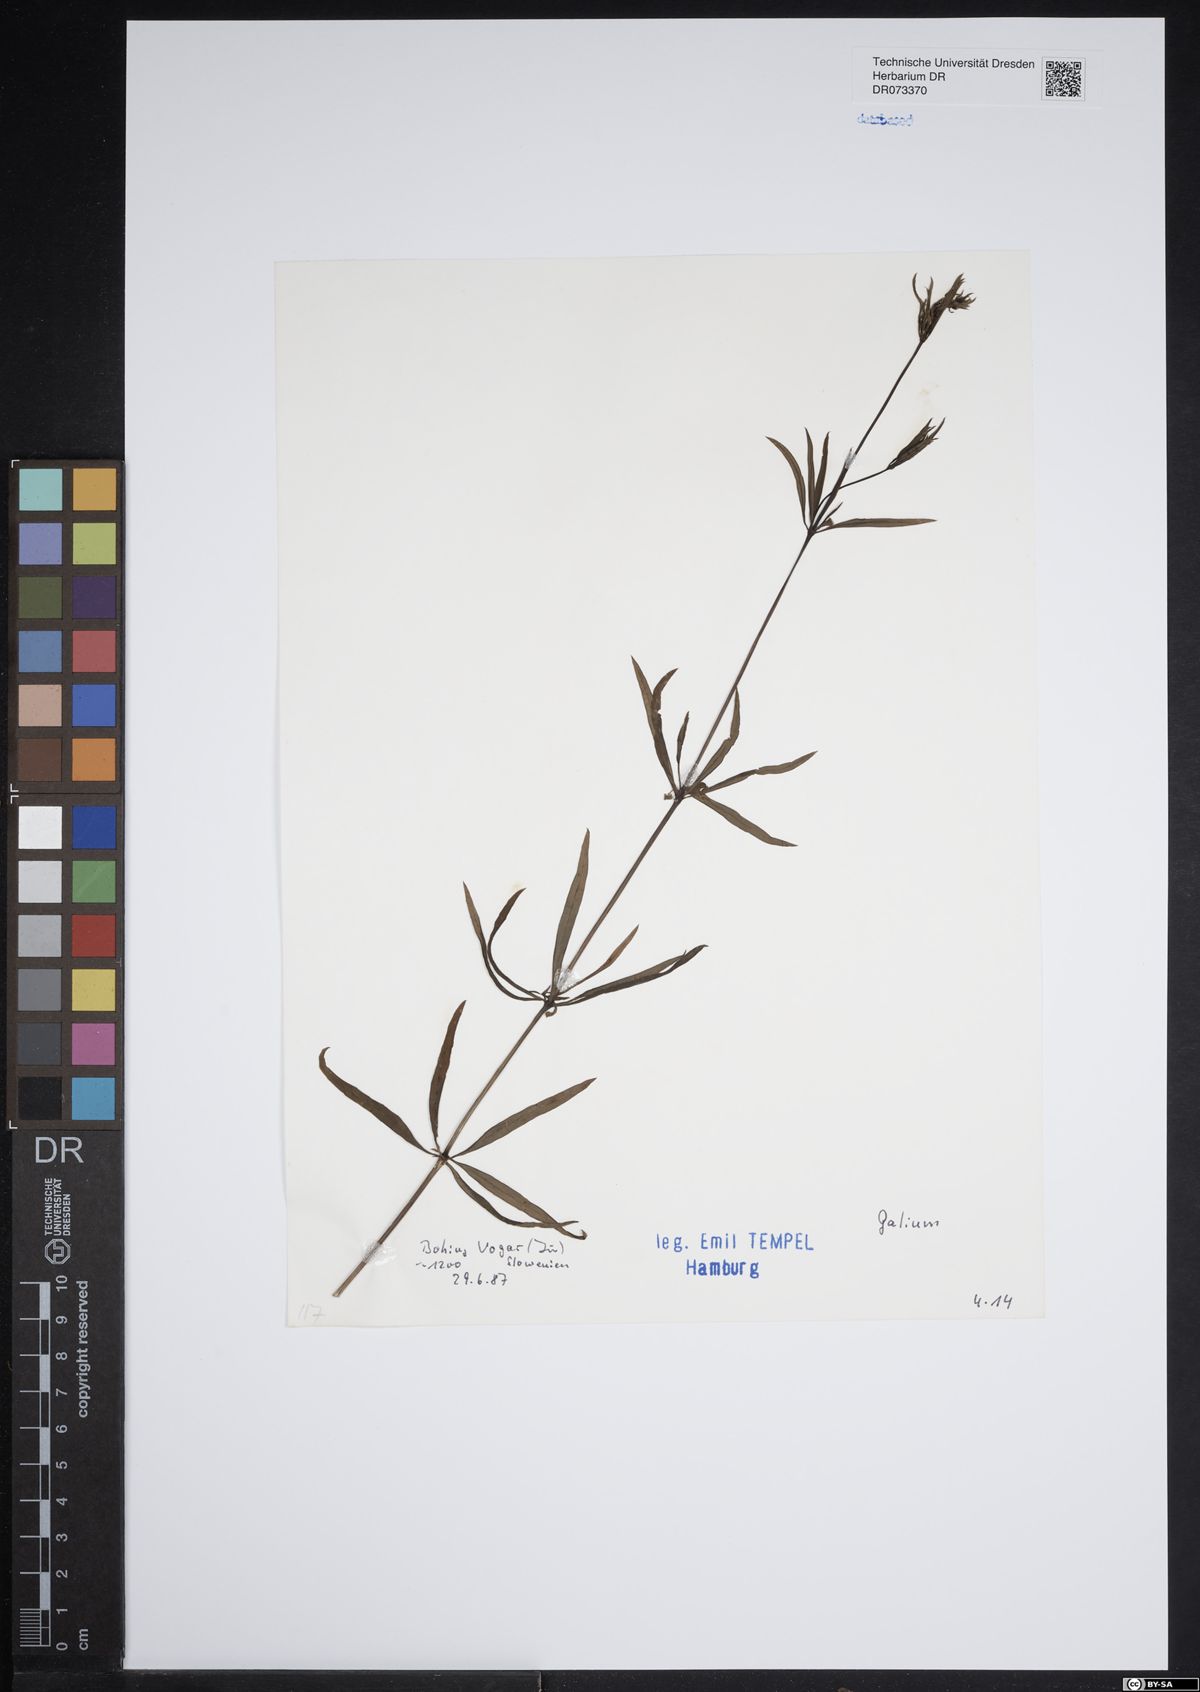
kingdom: Plantae
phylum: Tracheophyta
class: Magnoliopsida
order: Gentianales
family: Rubiaceae
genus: Galium
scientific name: Galium
